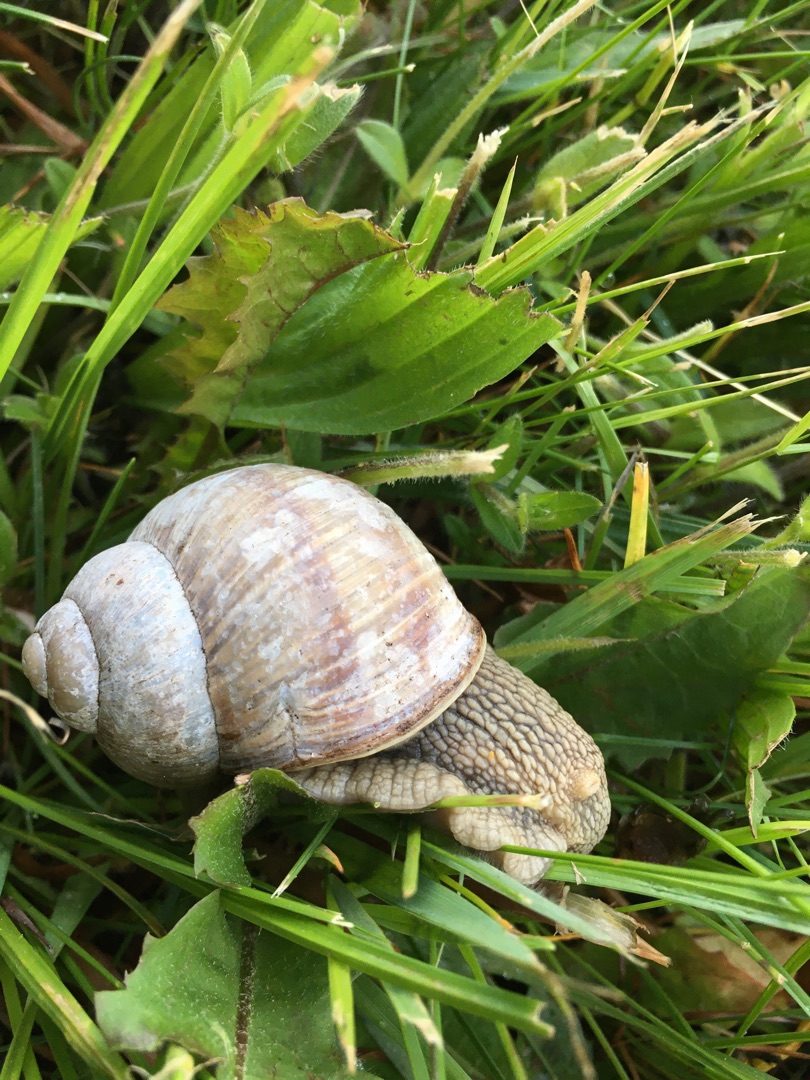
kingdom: Animalia
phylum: Mollusca
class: Gastropoda
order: Stylommatophora
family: Helicidae
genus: Helix
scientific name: Helix pomatia
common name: Vinbjergsnegl
